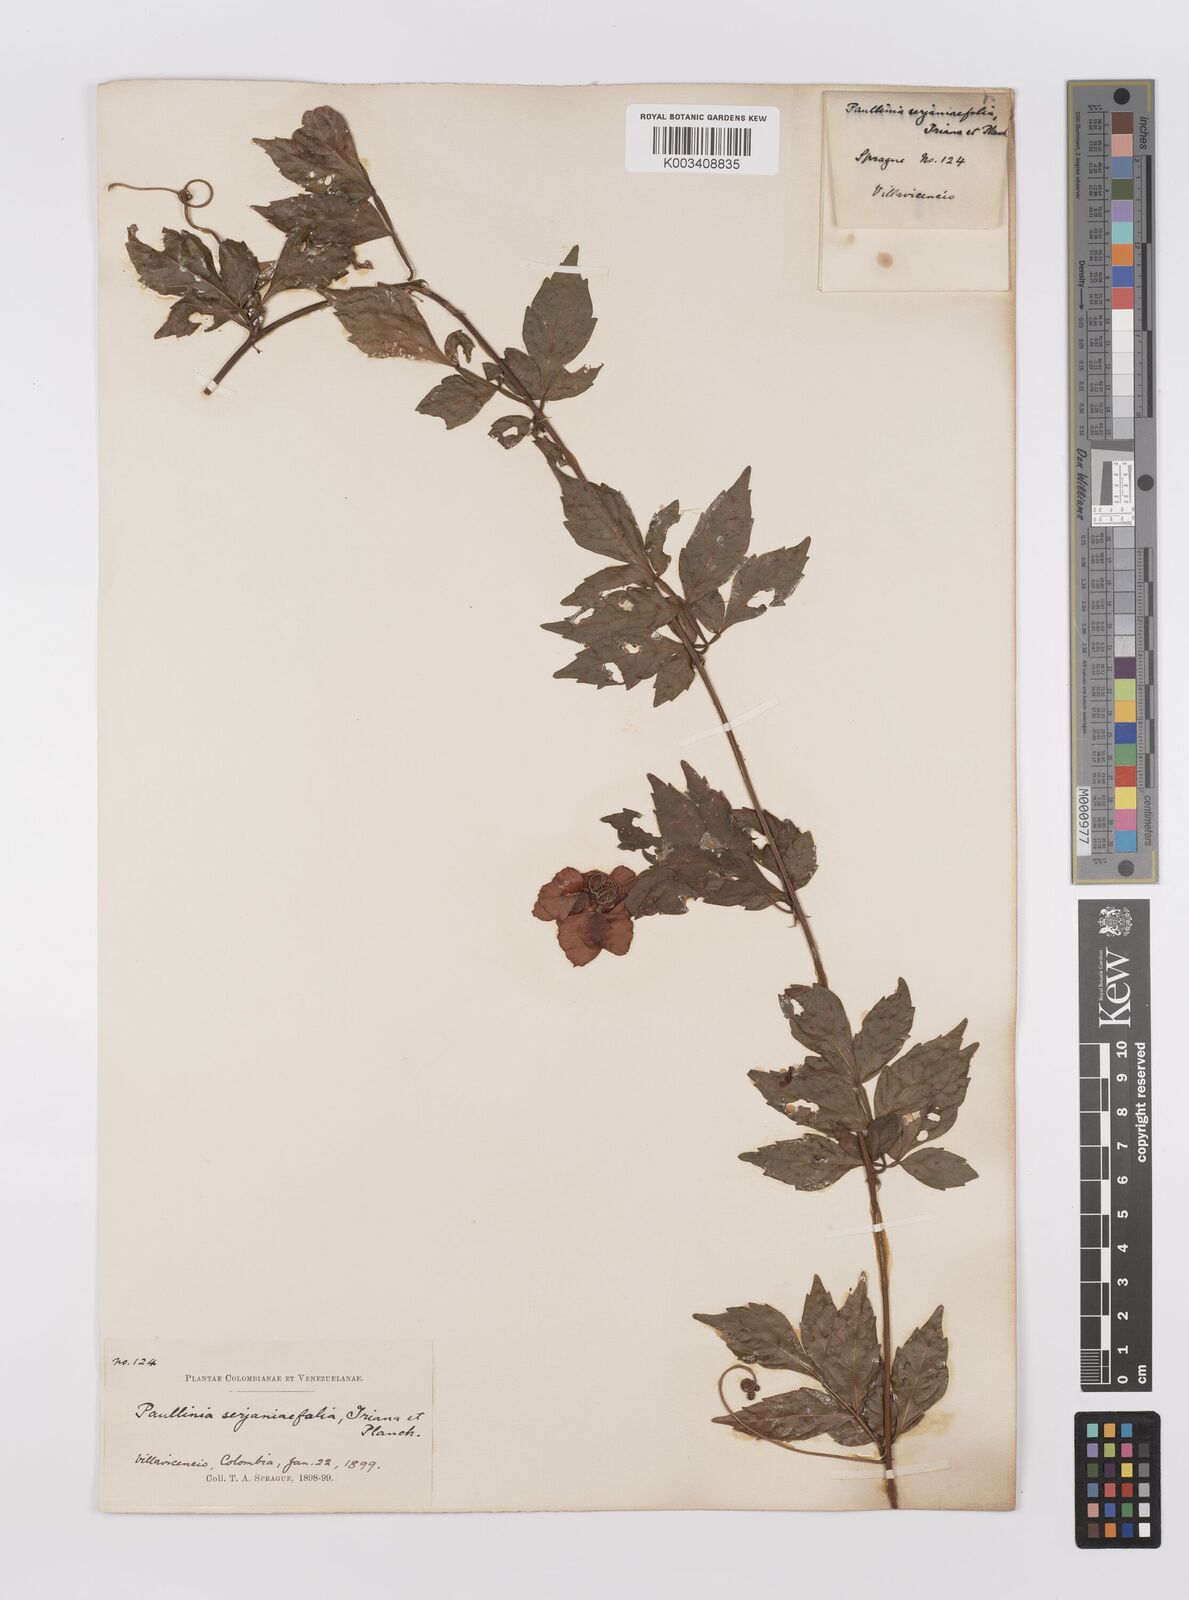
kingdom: Plantae
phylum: Tracheophyta
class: Magnoliopsida
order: Sapindales
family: Sapindaceae
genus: Paullinia
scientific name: Paullinia serjaniifolia
